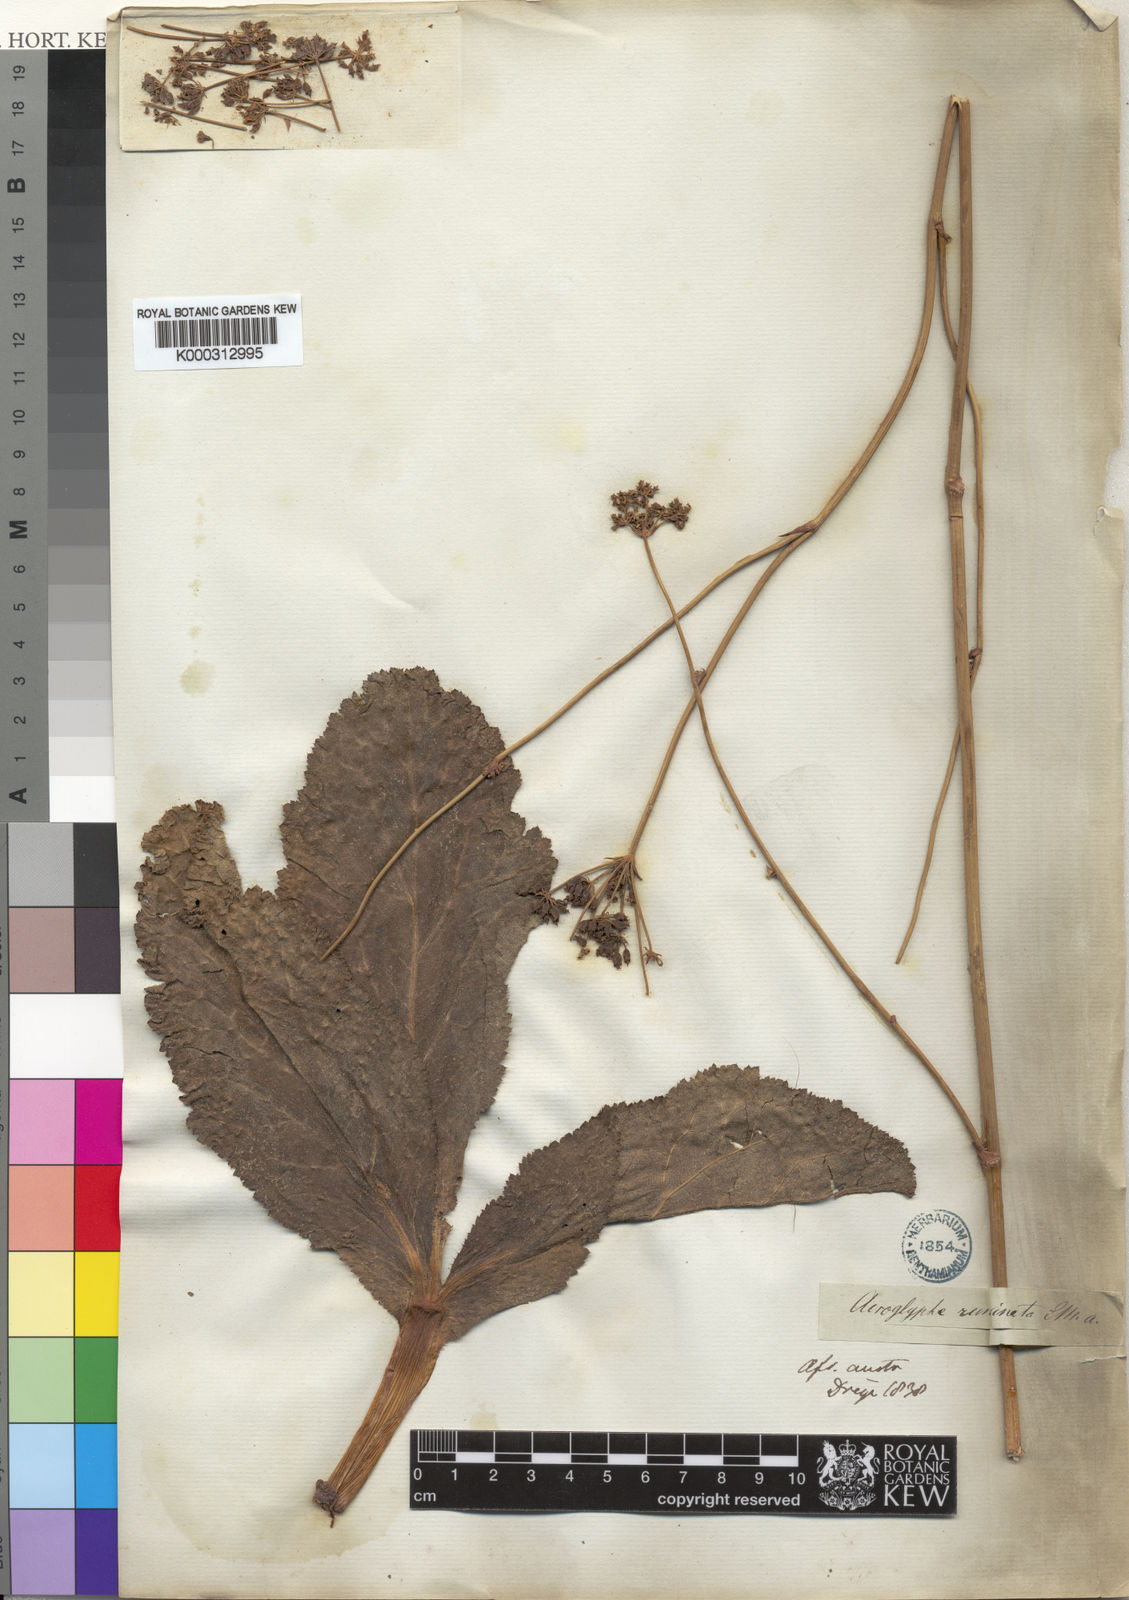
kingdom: Plantae
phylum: Tracheophyta
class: Magnoliopsida
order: Apiales
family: Apiaceae
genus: Lichtensteinia
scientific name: Lichtensteinia trifida
